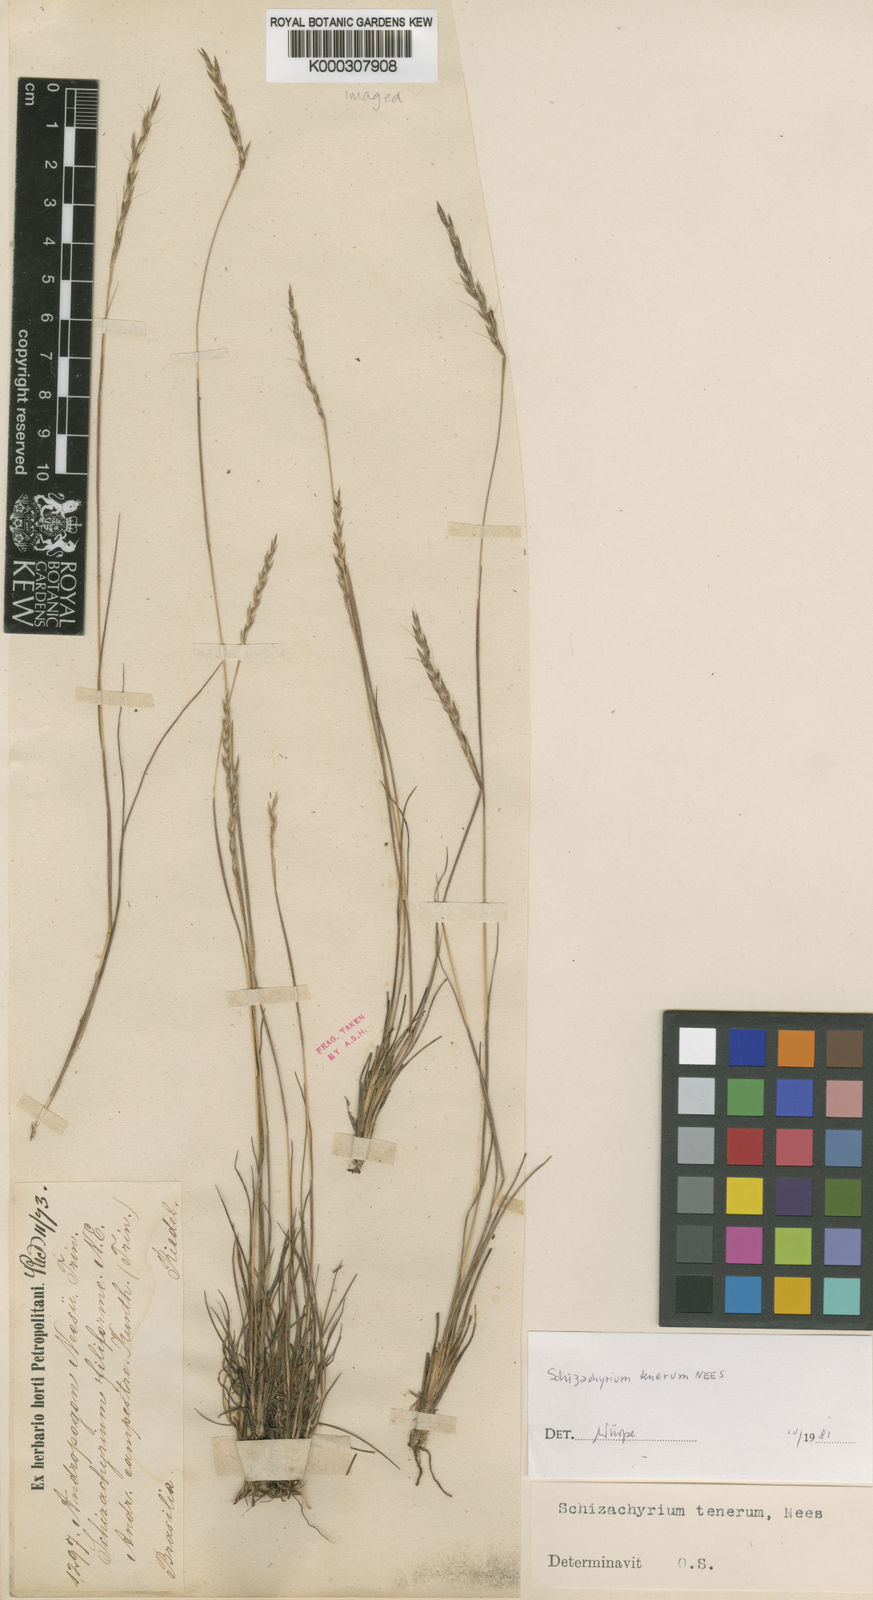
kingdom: Plantae
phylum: Tracheophyta
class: Liliopsida
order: Poales
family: Poaceae
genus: Andropogon
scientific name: Andropogon tener
